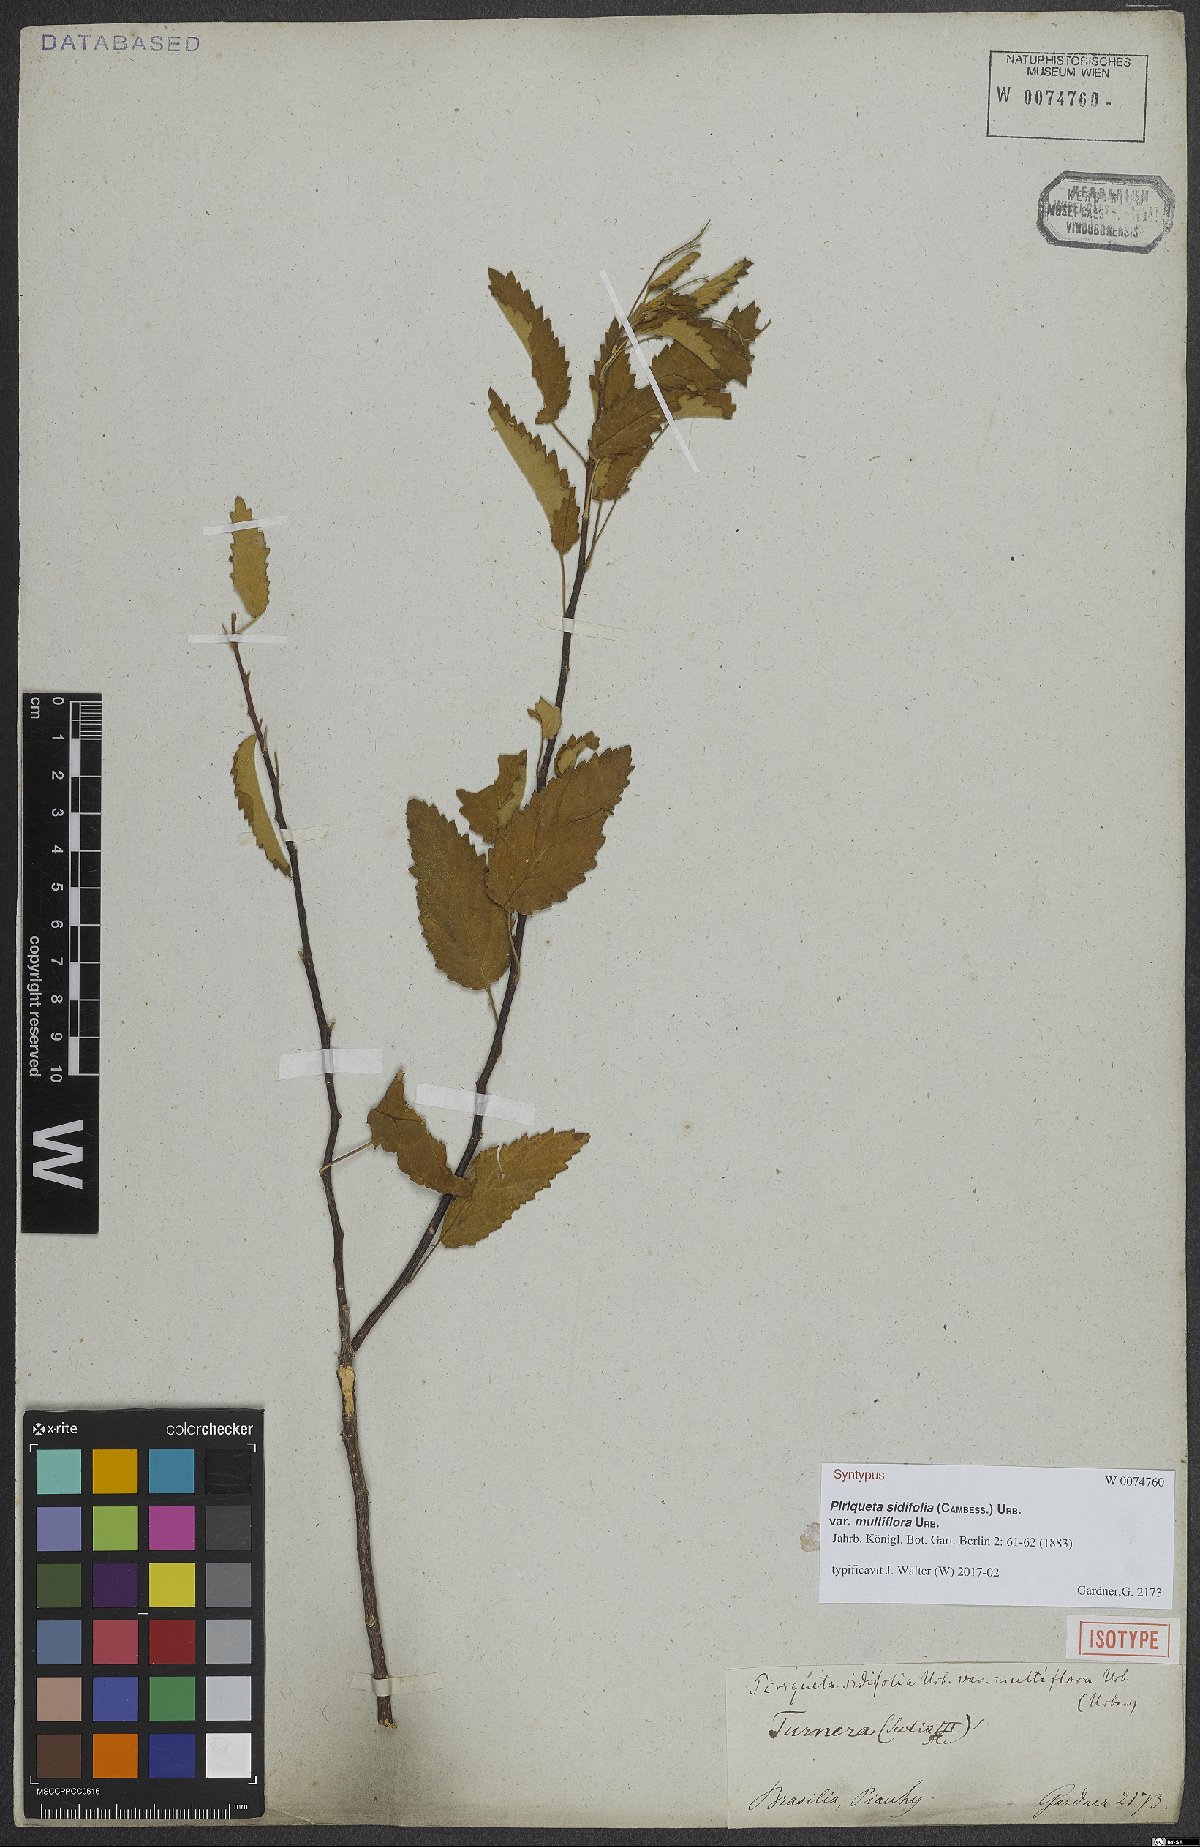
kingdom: Plantae
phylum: Tracheophyta
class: Magnoliopsida
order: Malpighiales
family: Turneraceae
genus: Piriqueta
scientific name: Piriqueta sidifolia
